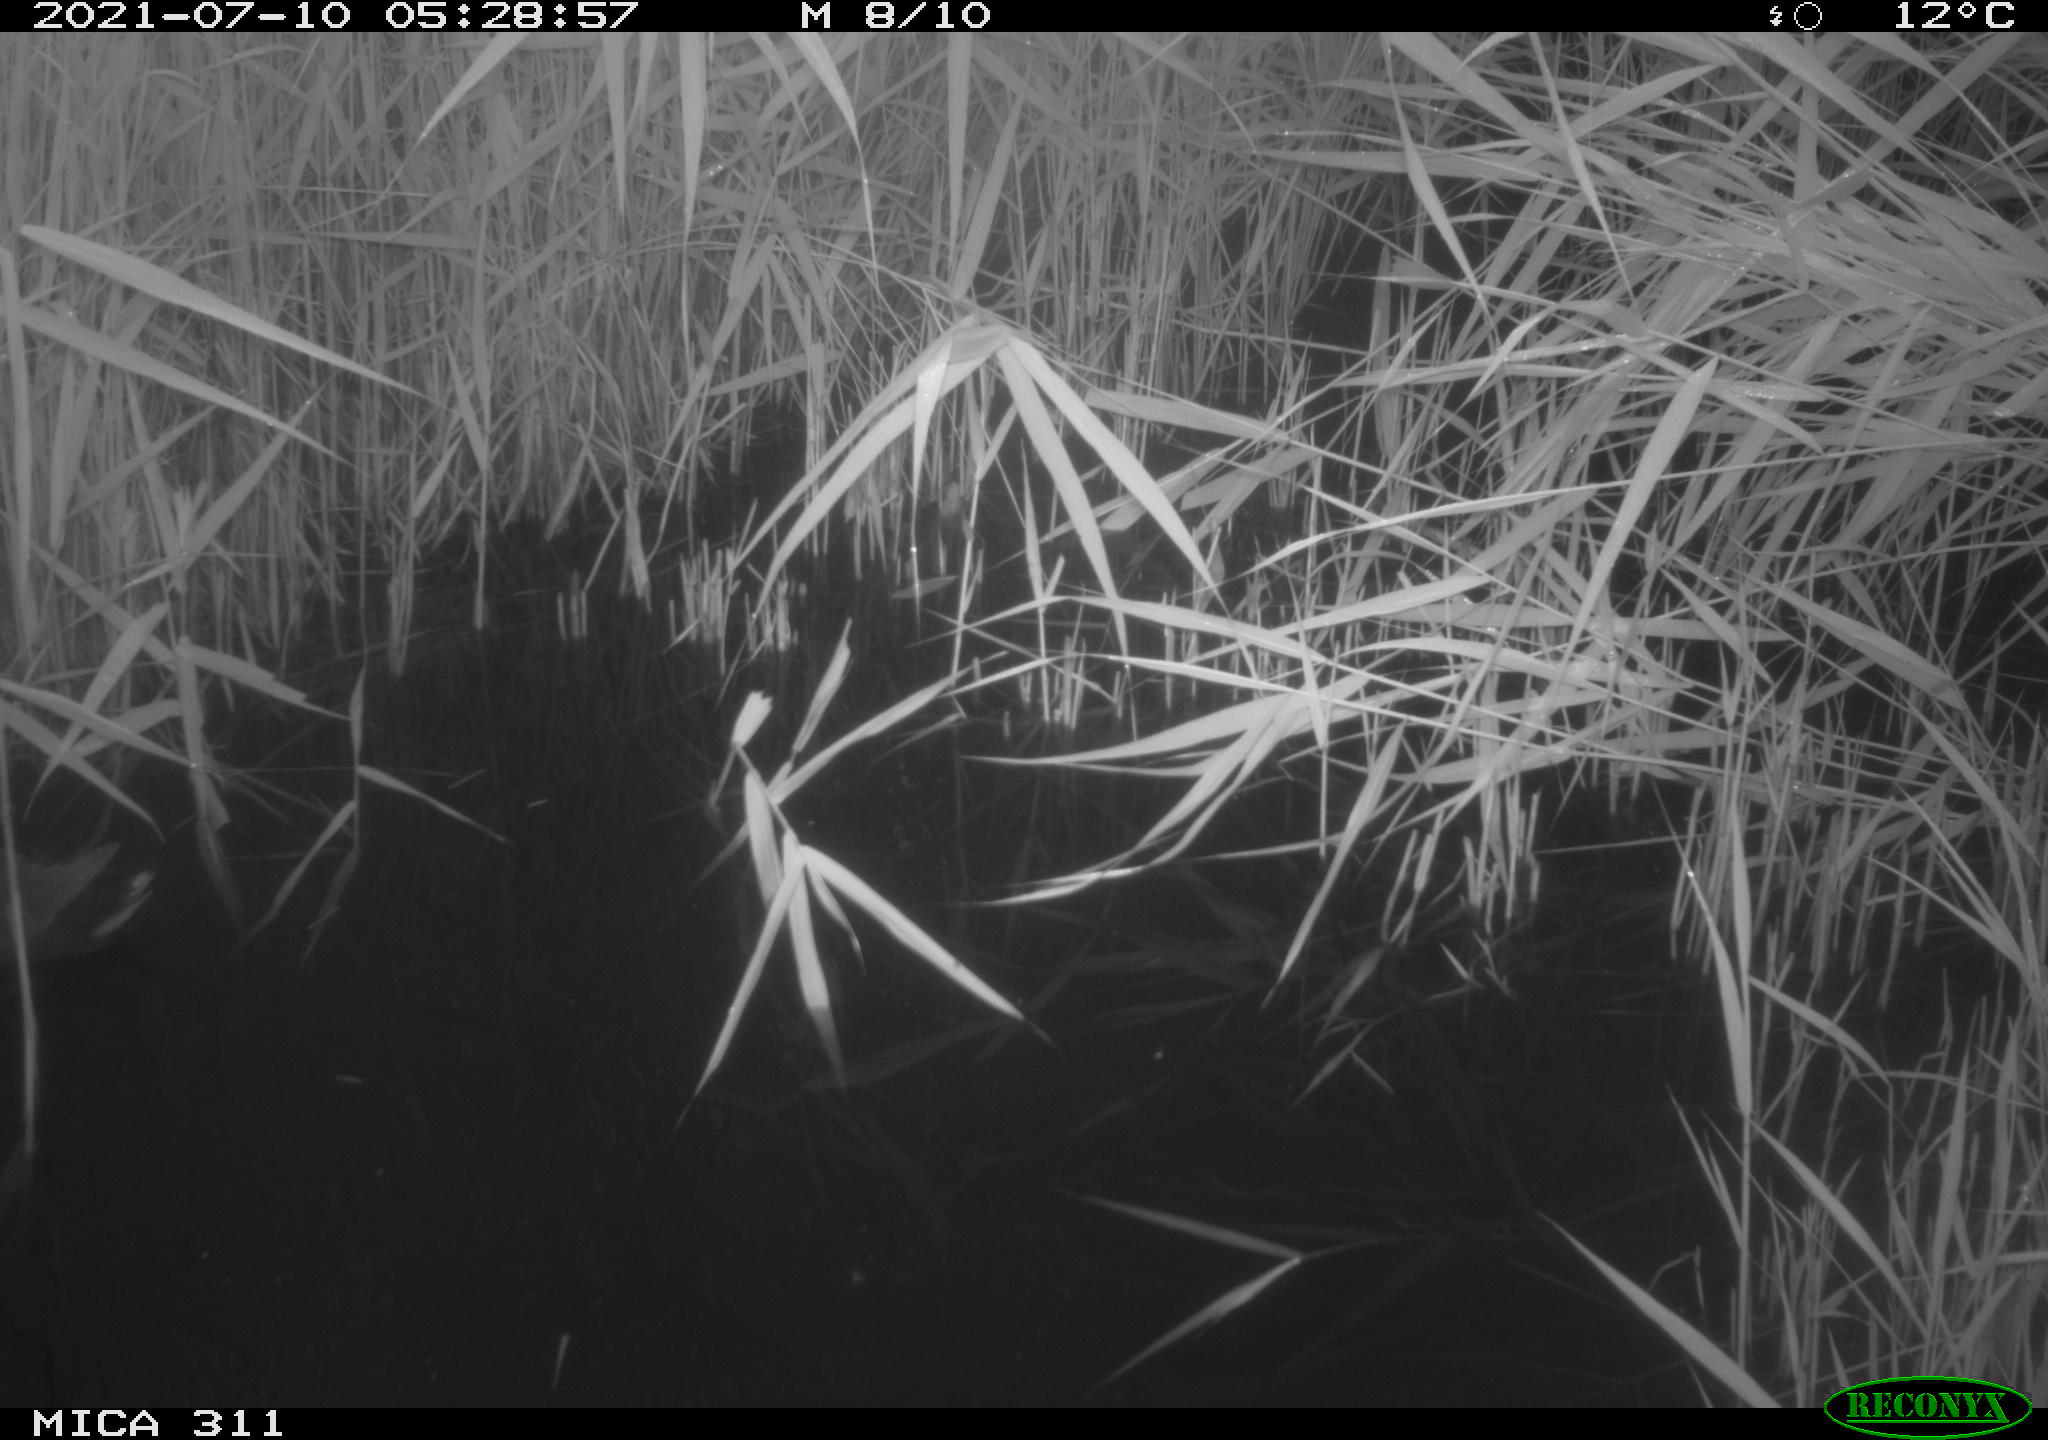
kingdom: Animalia
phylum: Chordata
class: Aves
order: Gruiformes
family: Rallidae
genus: Gallinula
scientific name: Gallinula chloropus
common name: Common moorhen
